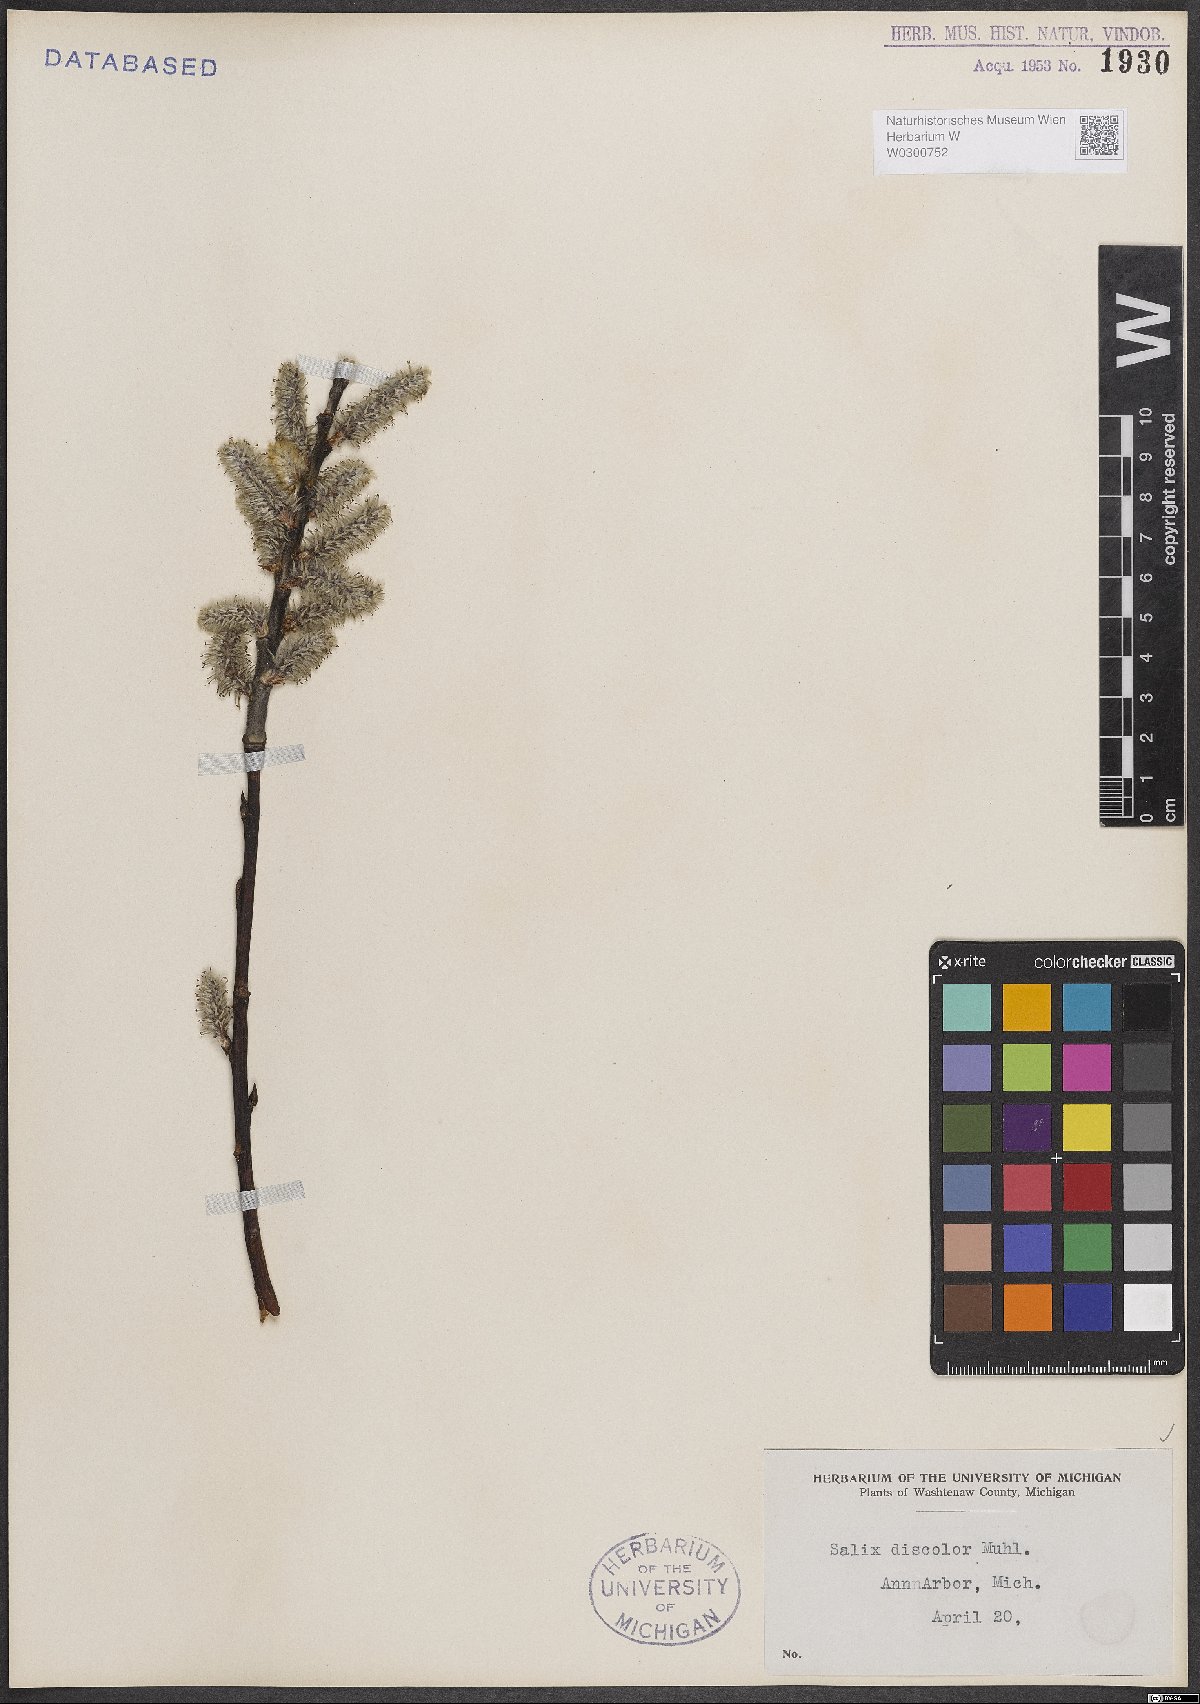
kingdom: Plantae
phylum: Tracheophyta
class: Magnoliopsida
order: Malpighiales
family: Salicaceae
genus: Salix
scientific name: Salix discolor
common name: Glaucous willow
